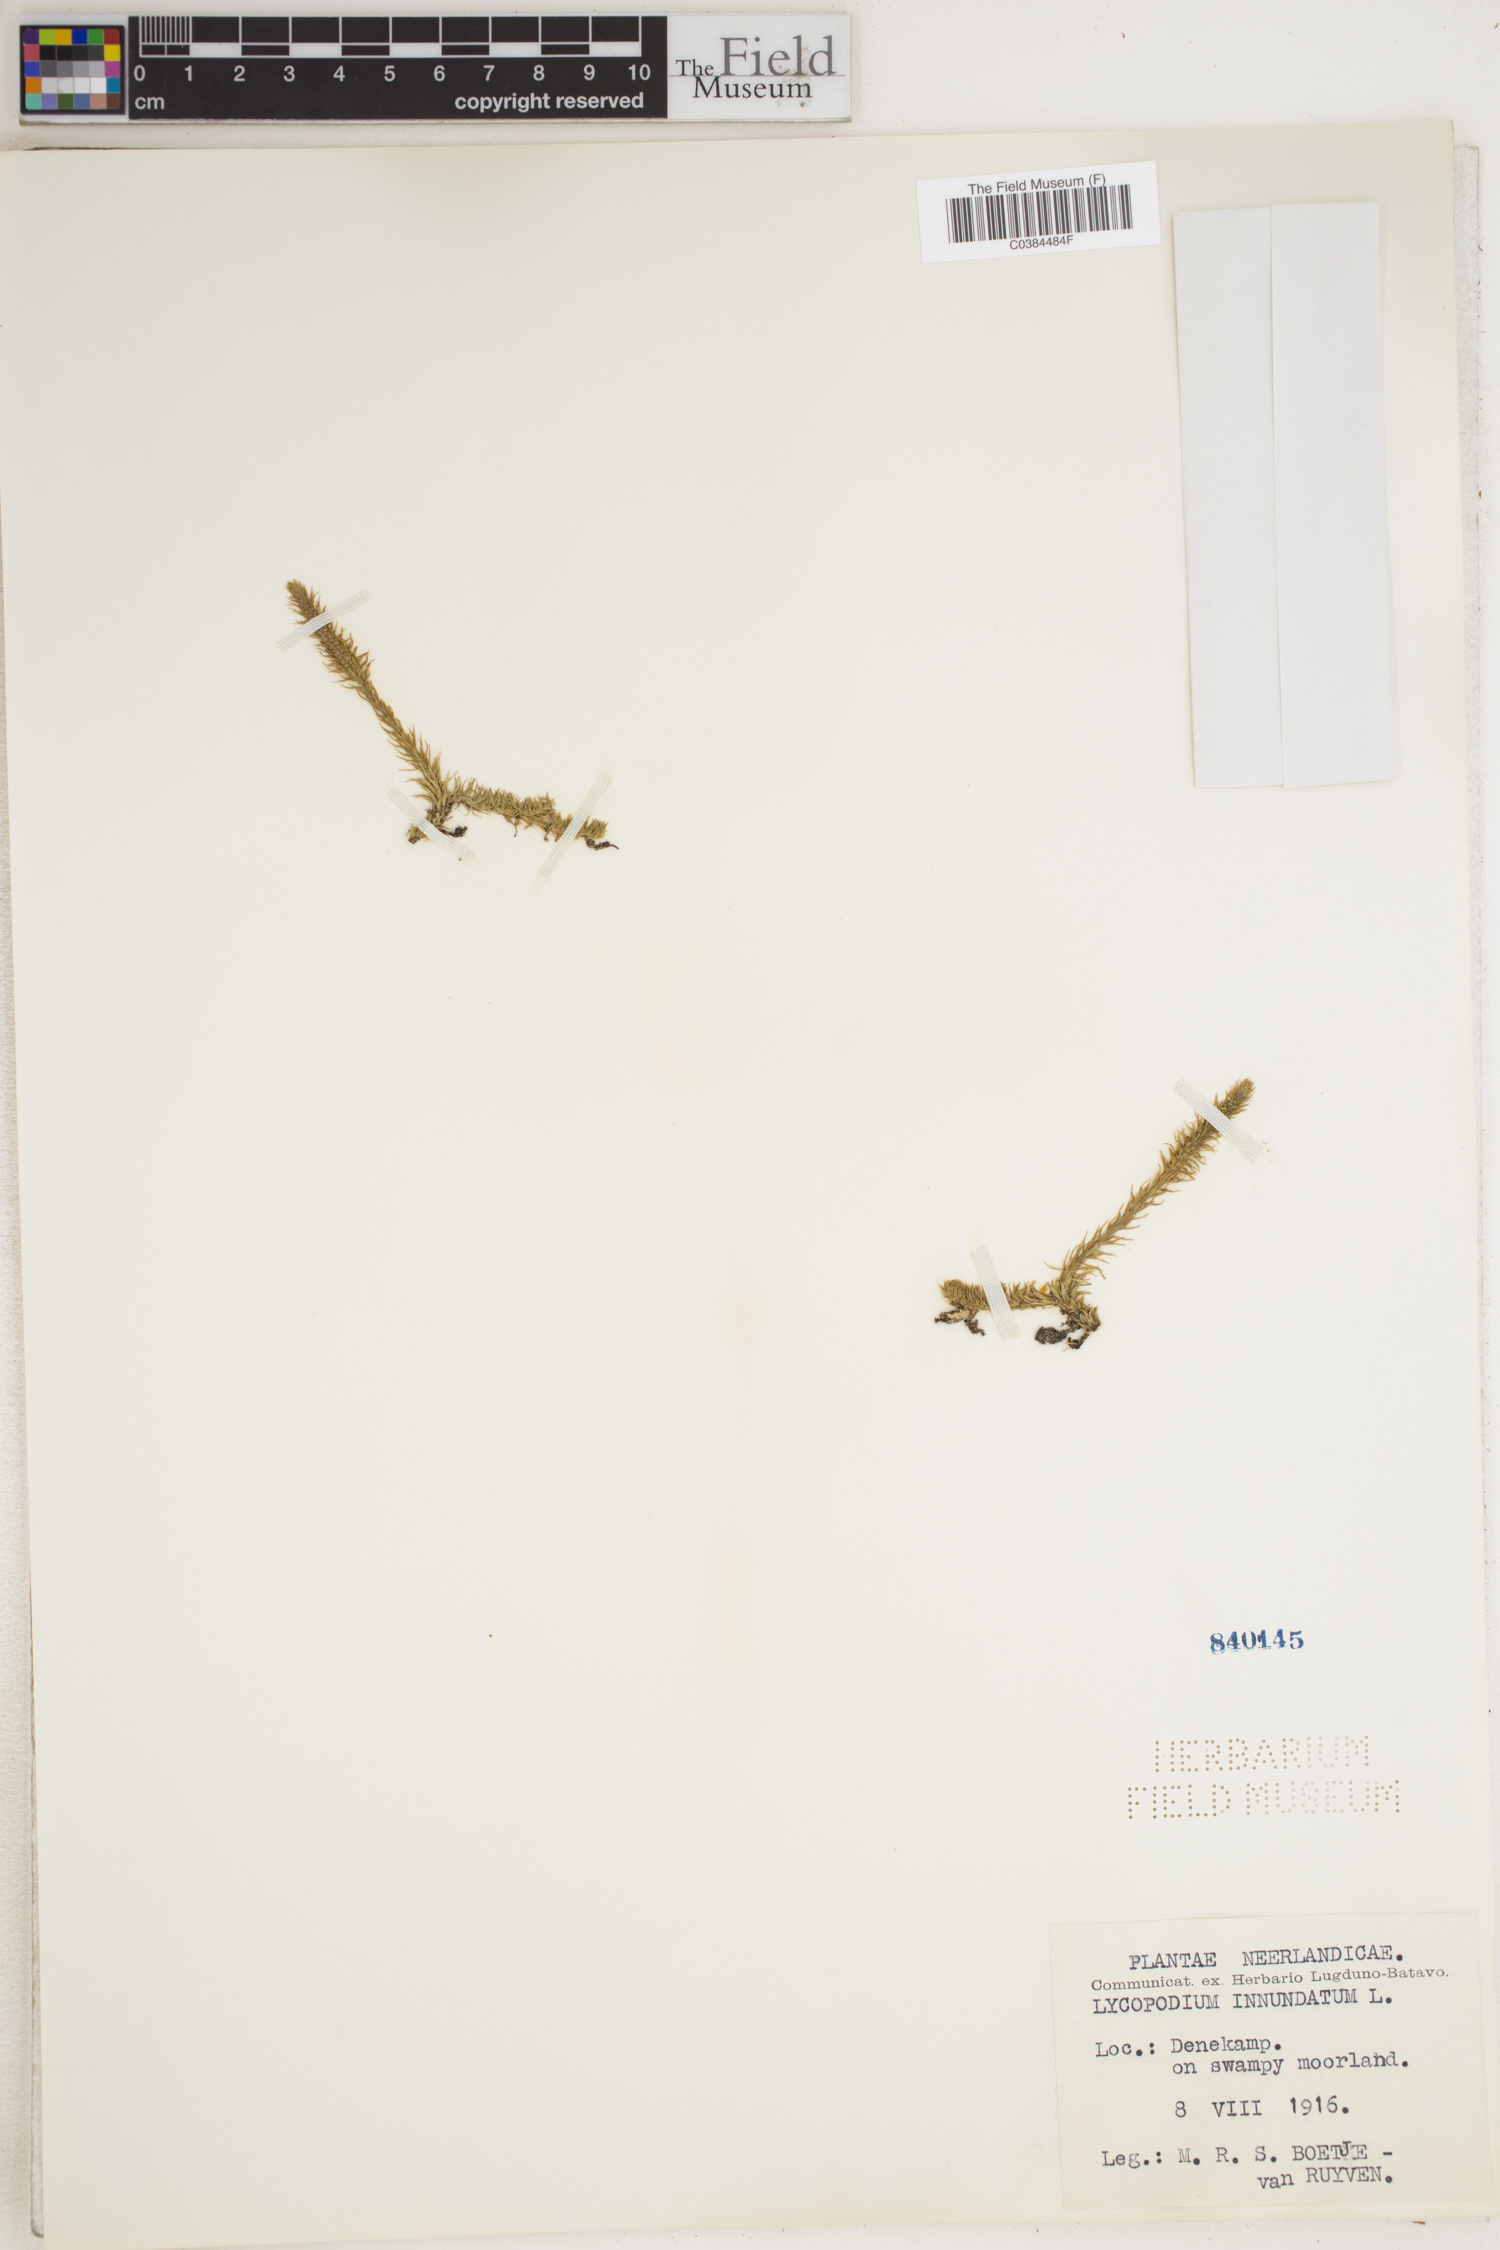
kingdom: Plantae
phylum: Tracheophyta
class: Lycopodiopsida
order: Lycopodiales
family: Lycopodiaceae
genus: Lycopodiella
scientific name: Lycopodiella inundata
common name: Marsh clubmoss
